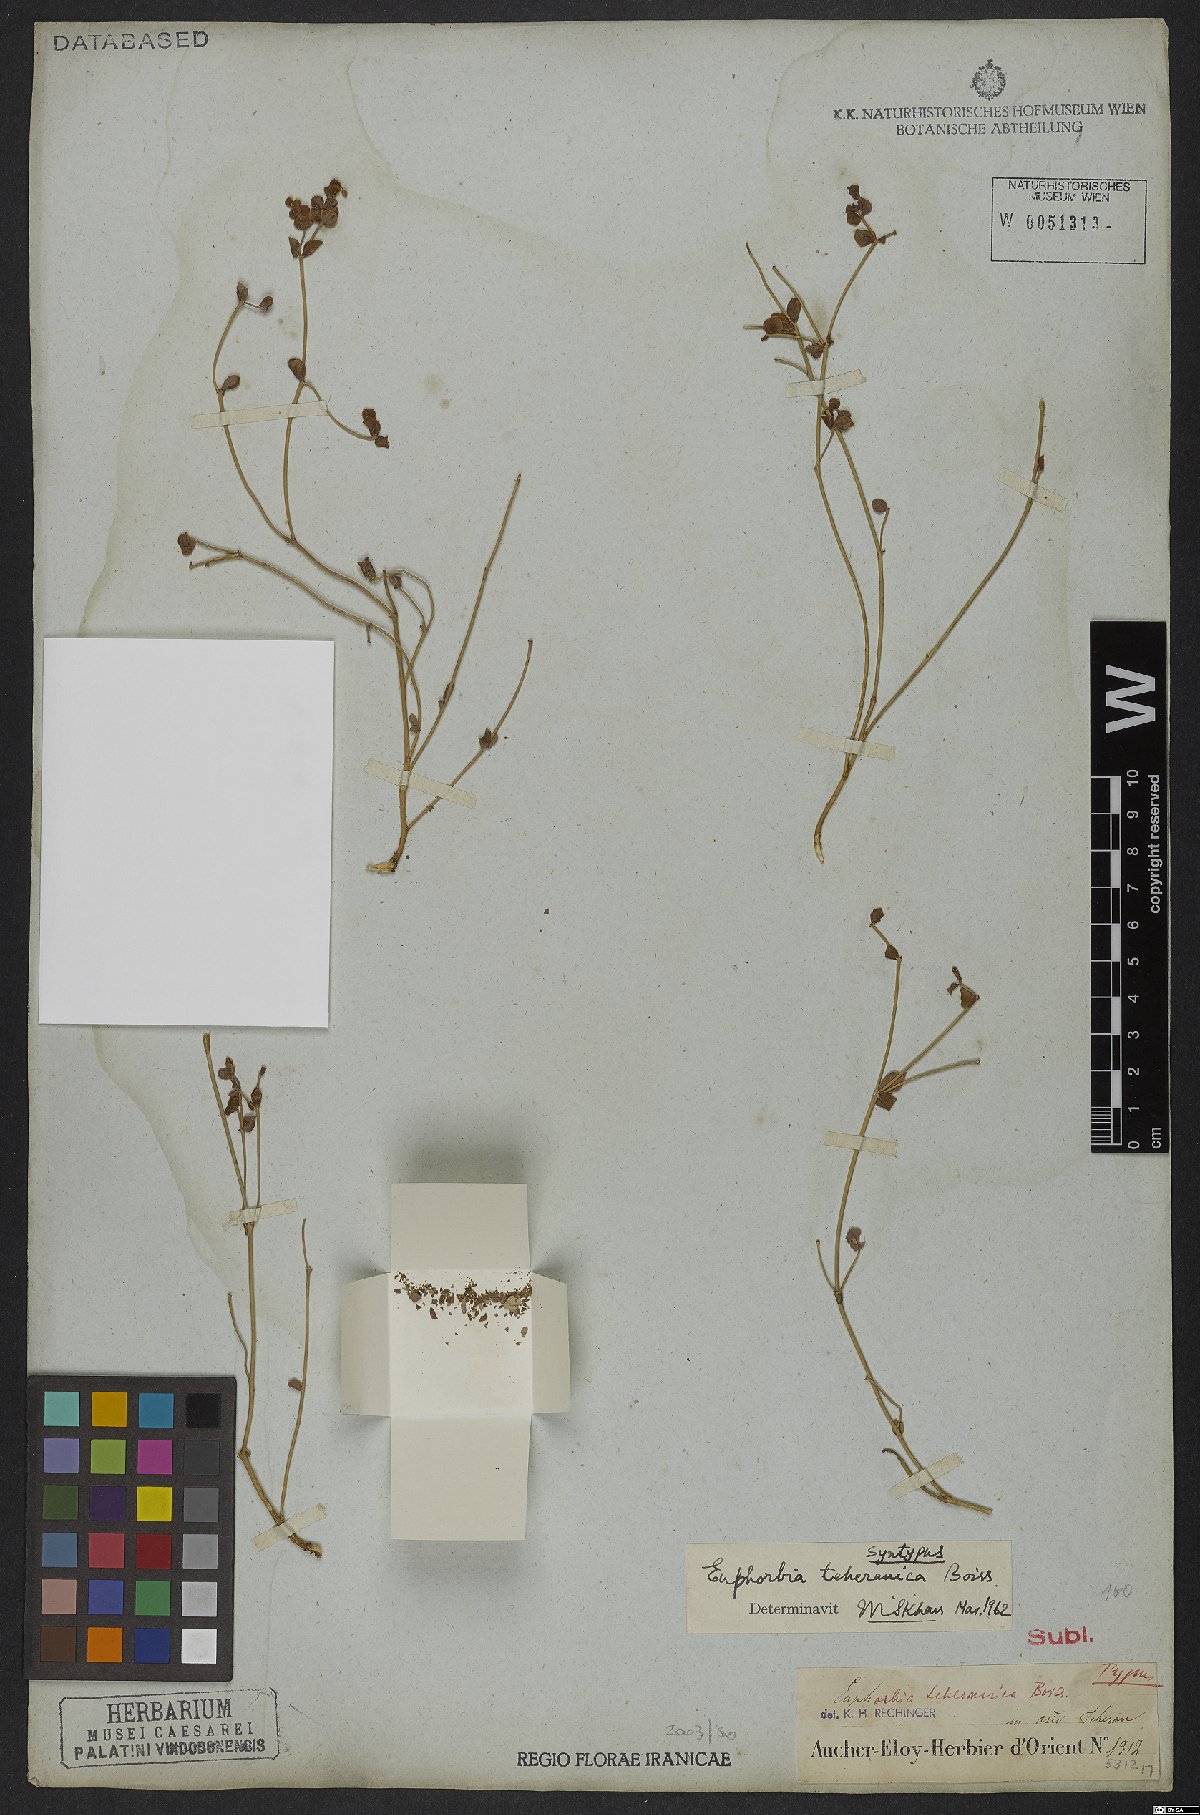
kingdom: Plantae
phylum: Tracheophyta
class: Magnoliopsida
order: Malpighiales
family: Euphorbiaceae
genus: Euphorbia
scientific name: Euphorbia teheranica
